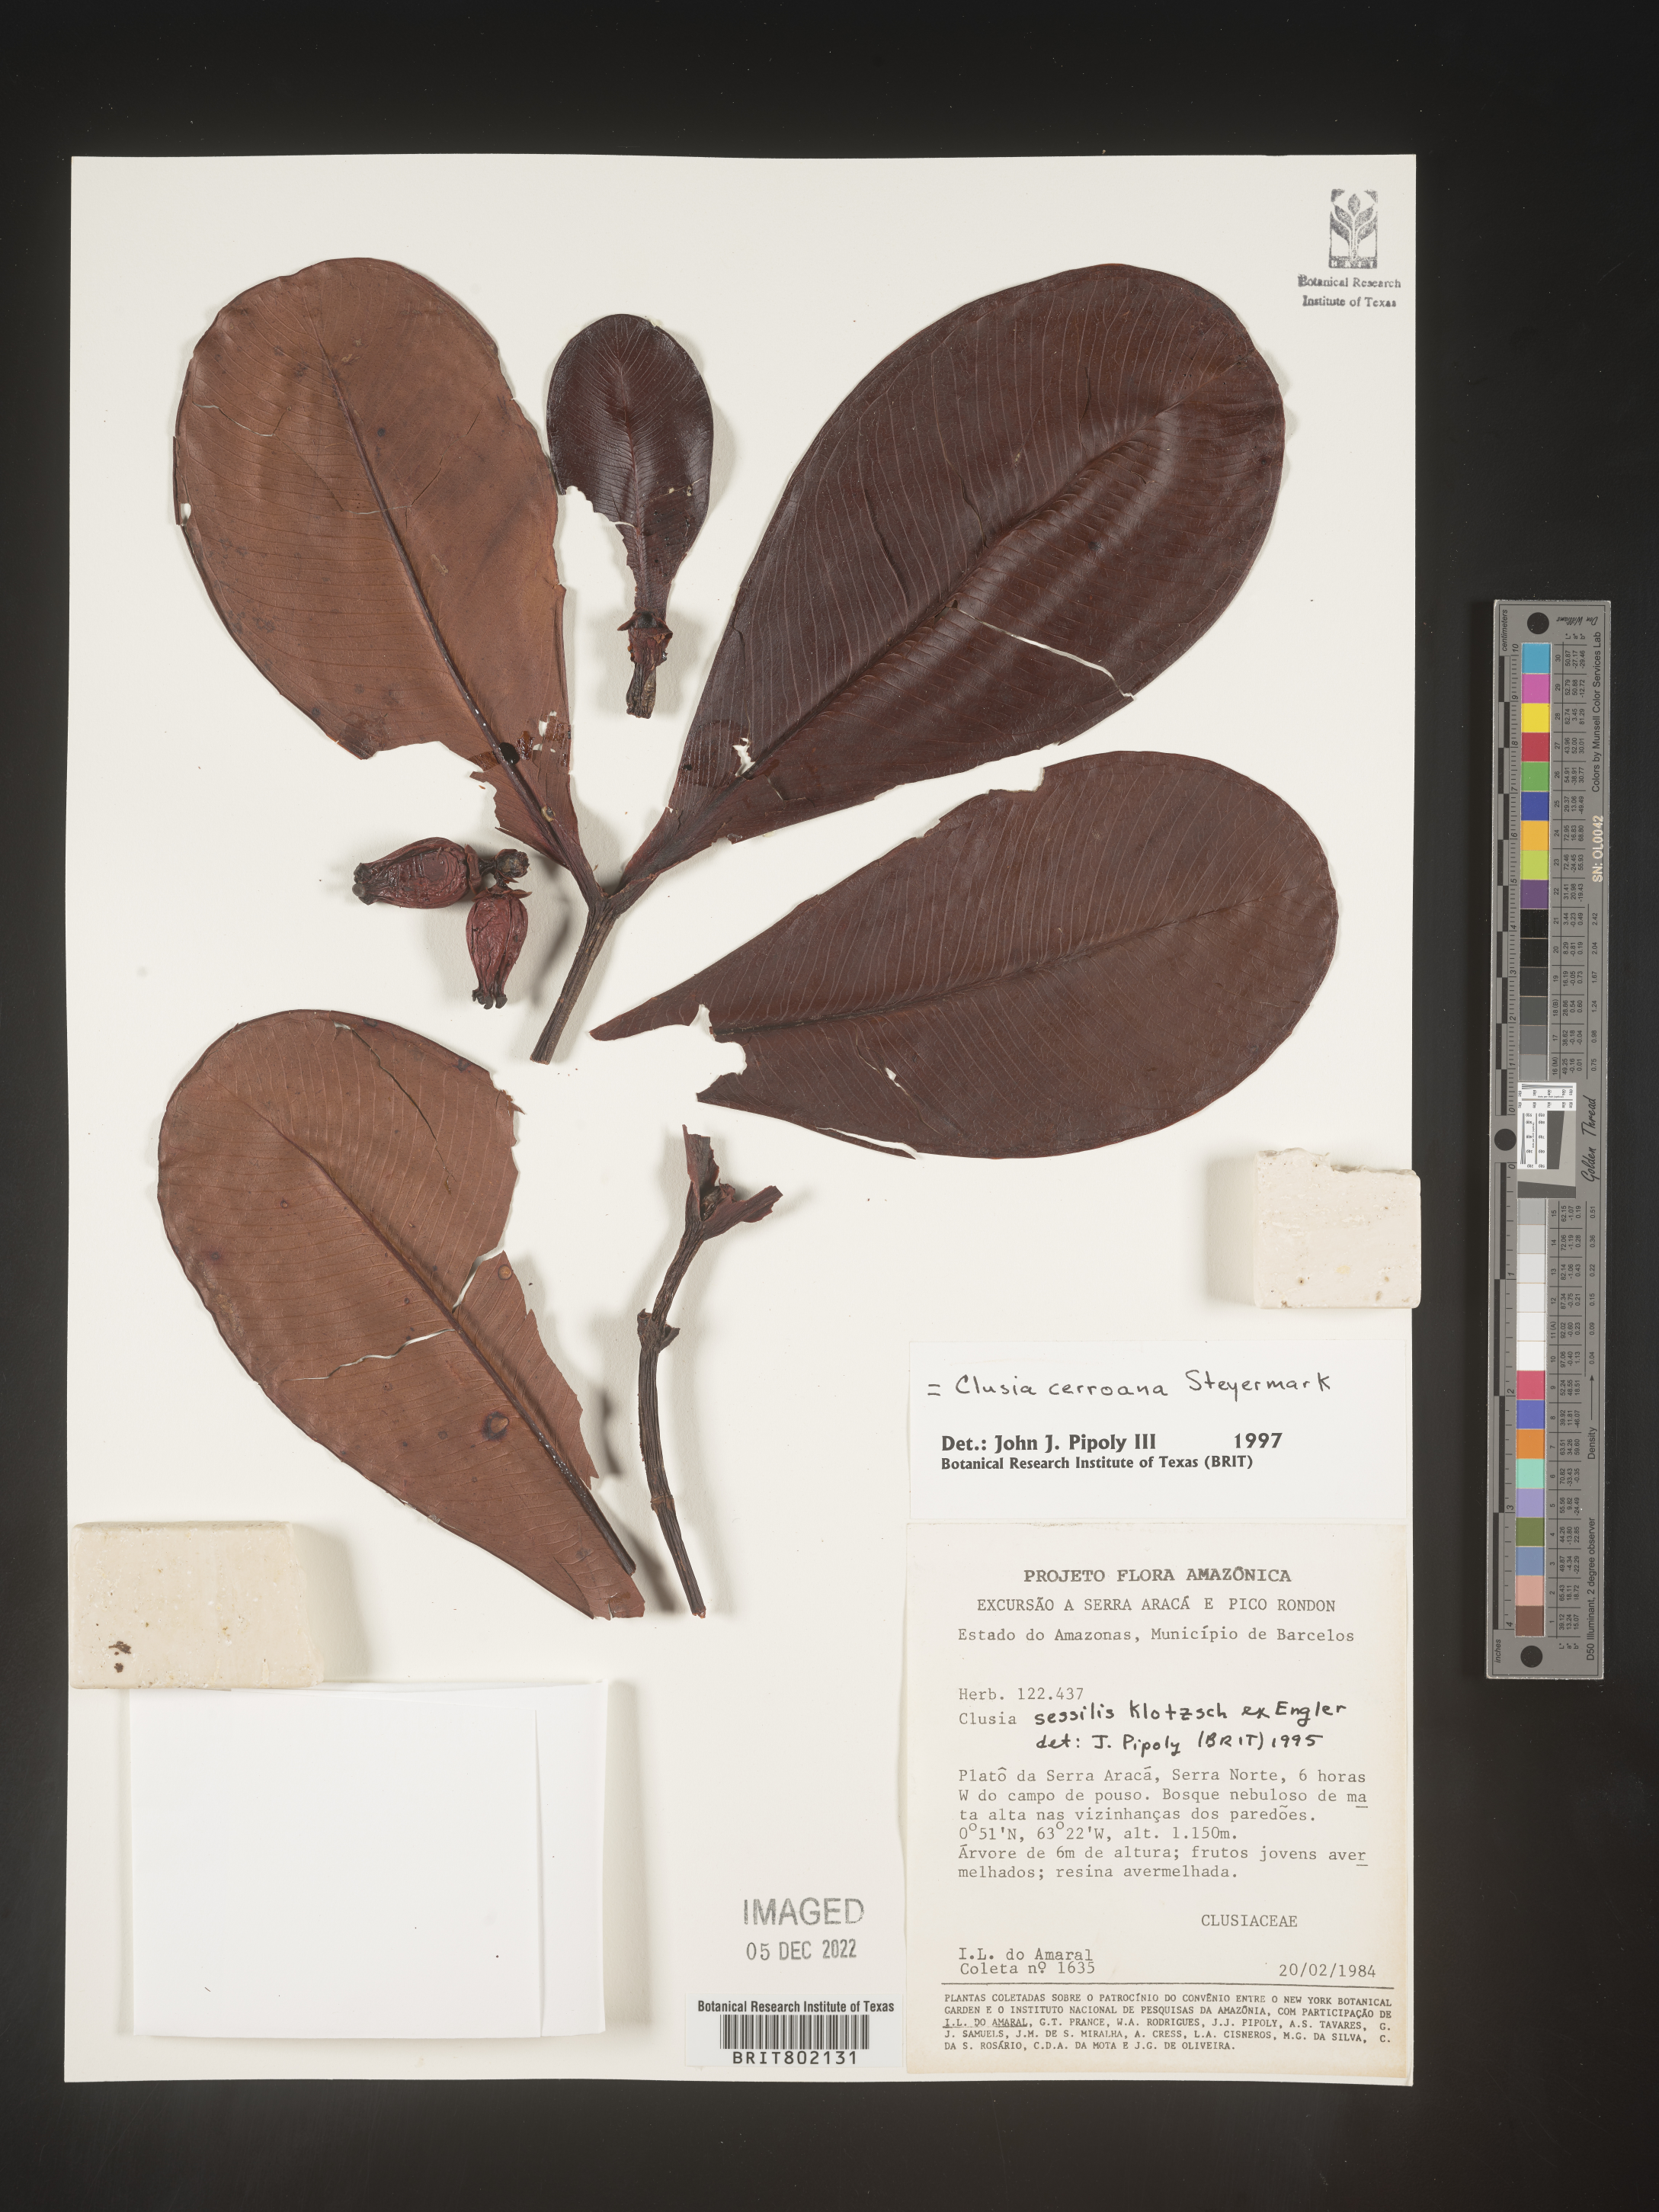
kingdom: Plantae
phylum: Tracheophyta
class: Magnoliopsida
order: Malpighiales
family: Clusiaceae
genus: Clusia
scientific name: Clusia cerroana
